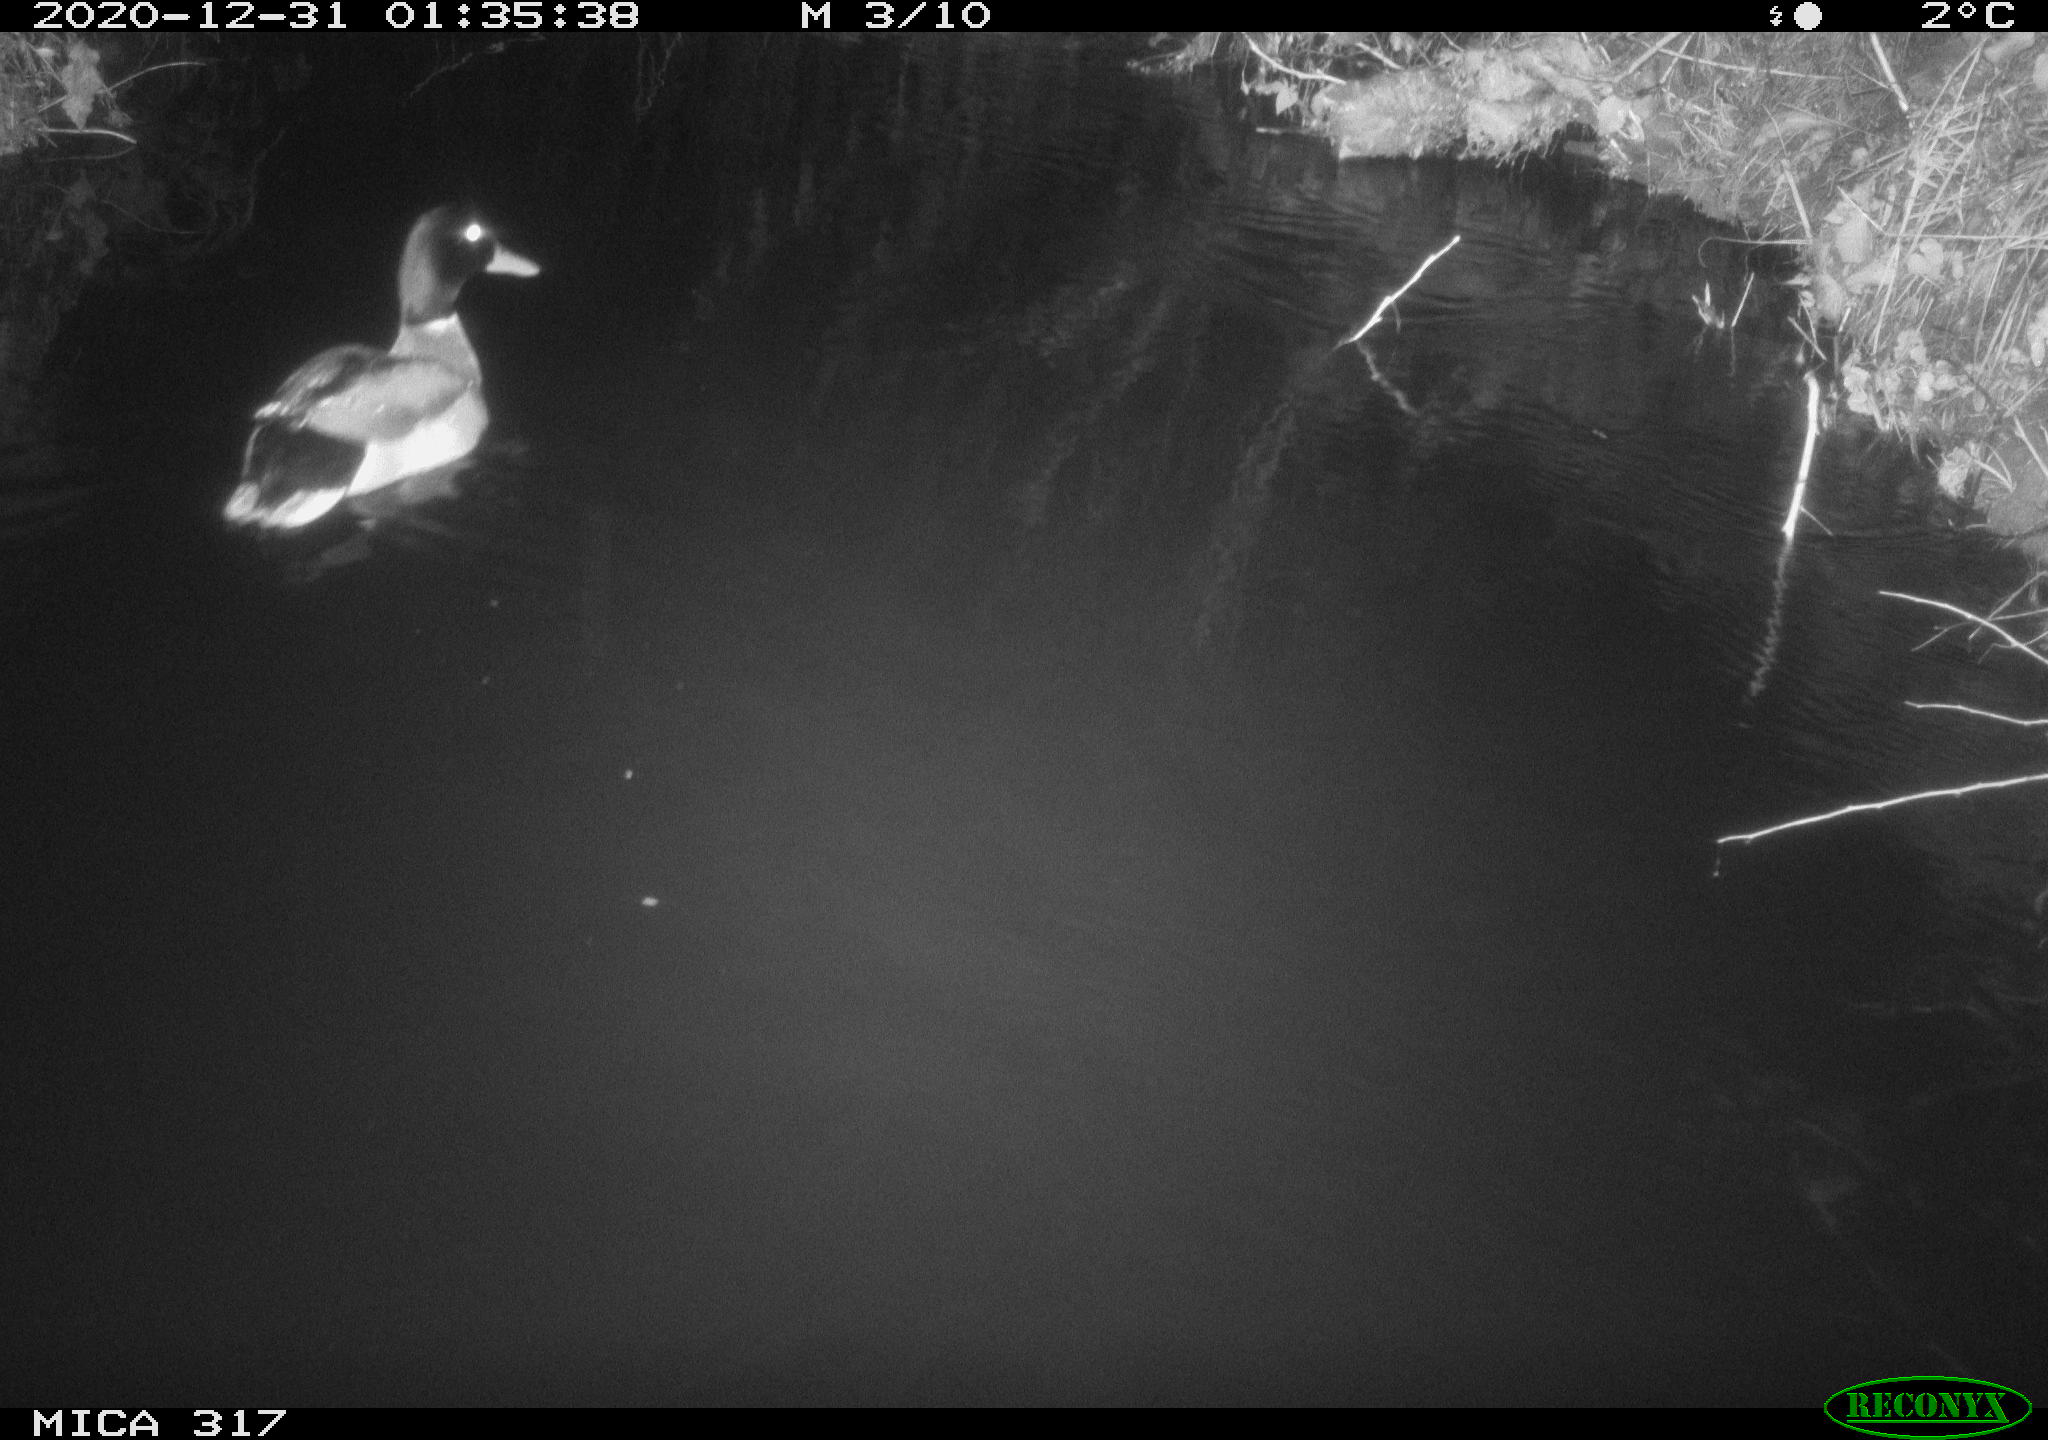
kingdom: Animalia
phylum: Chordata
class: Aves
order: Anseriformes
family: Anatidae
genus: Anas
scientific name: Anas platyrhynchos
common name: Mallard
